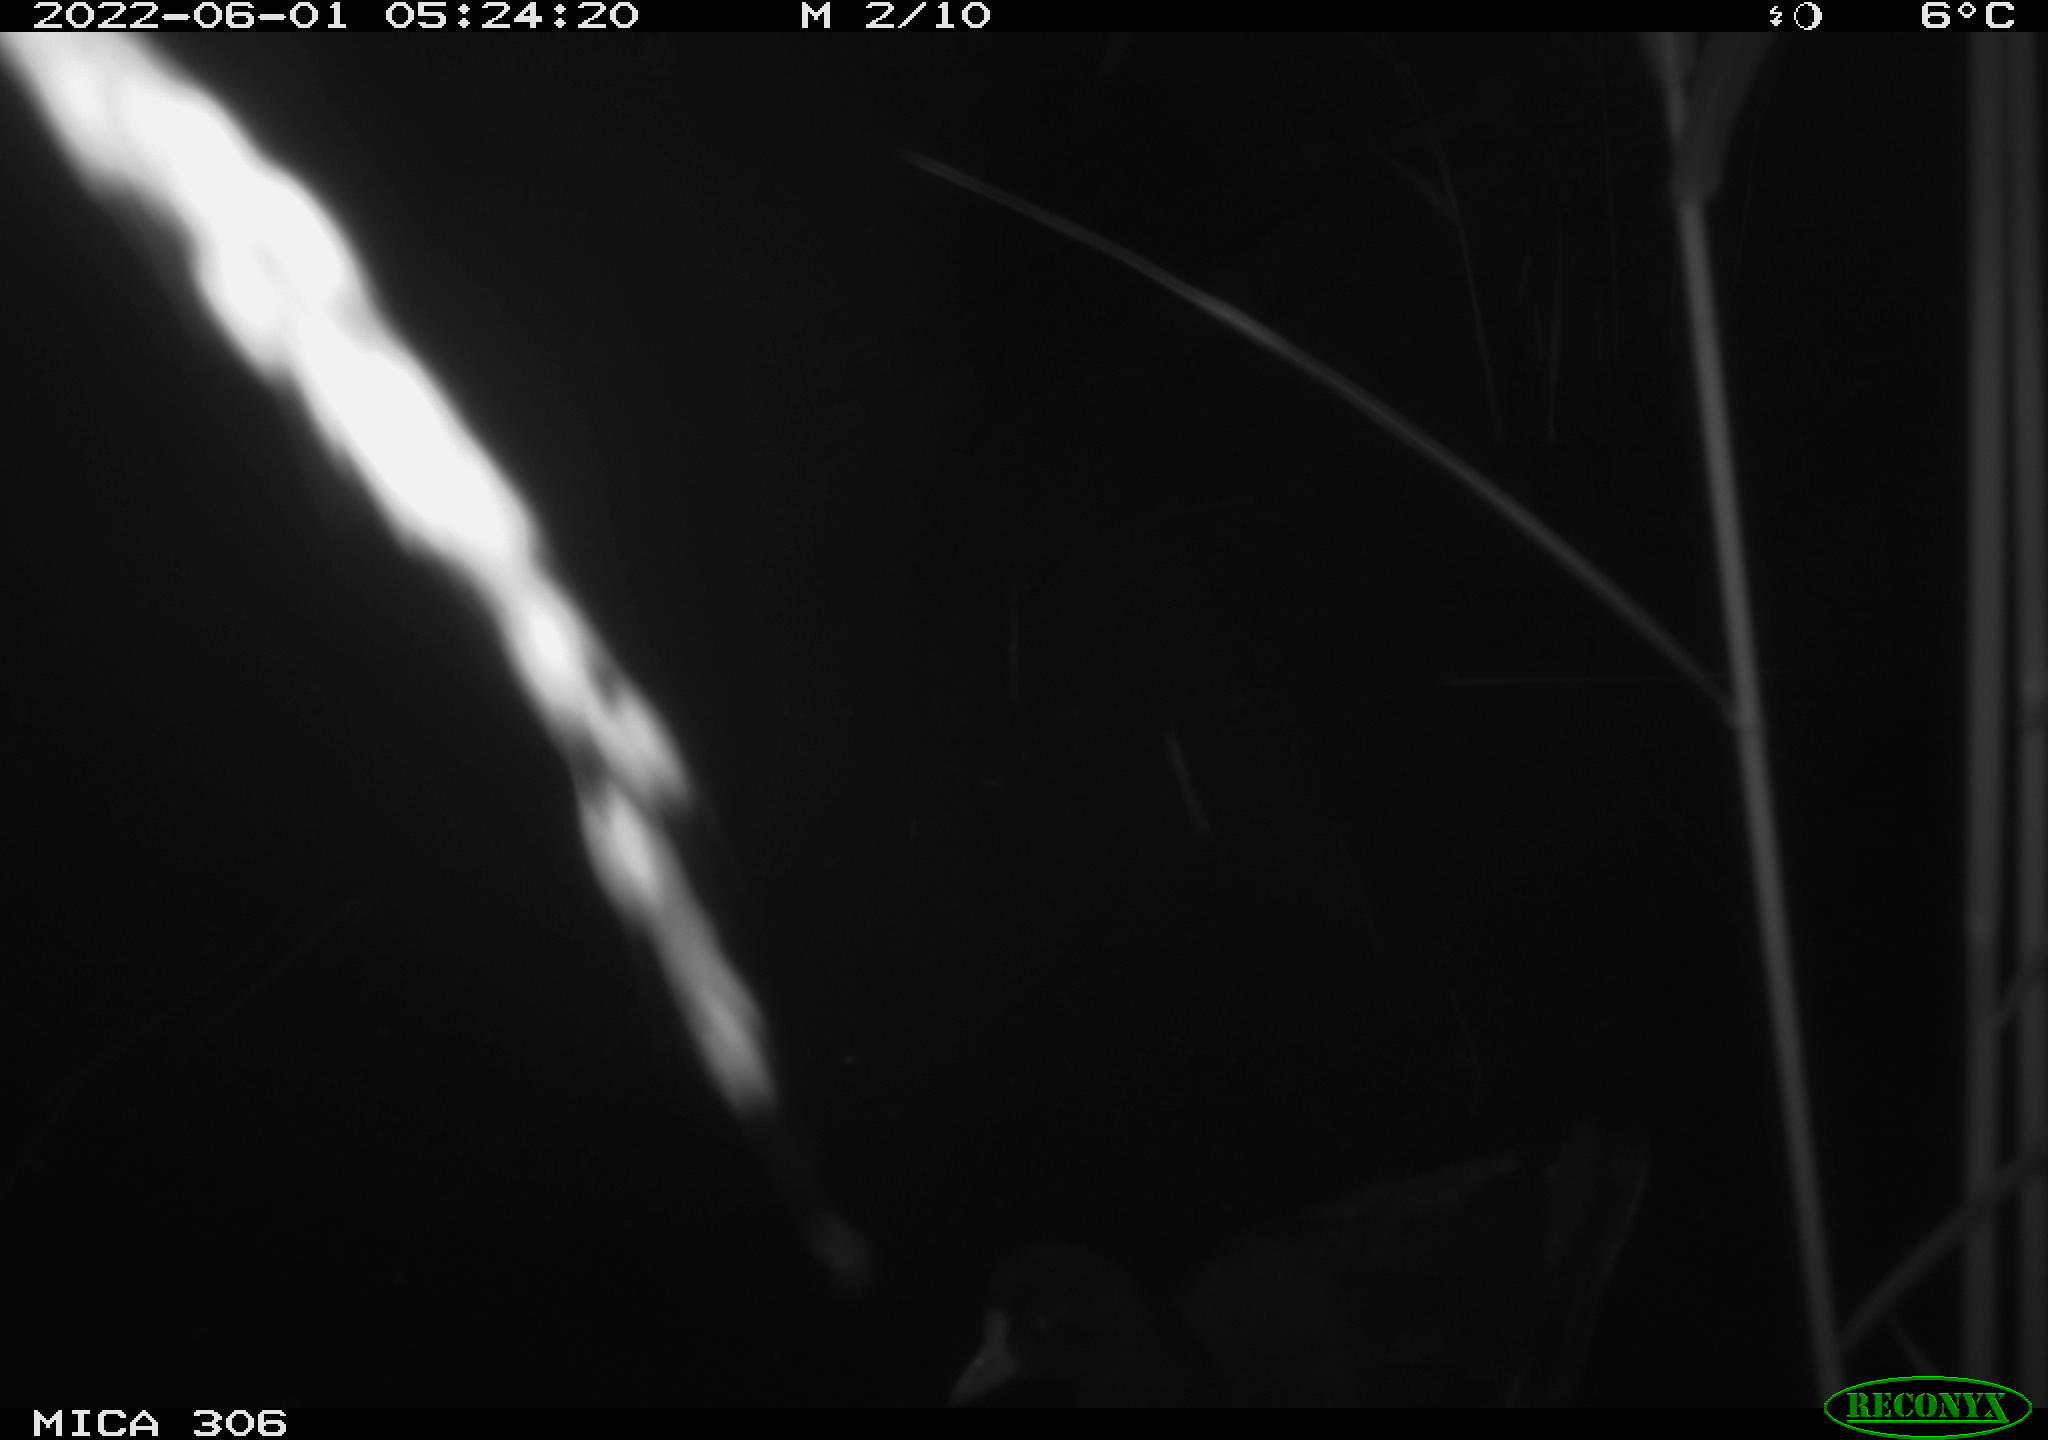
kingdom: Animalia
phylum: Chordata
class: Aves
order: Gruiformes
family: Rallidae
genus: Gallinula
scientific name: Gallinula chloropus
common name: Common moorhen
